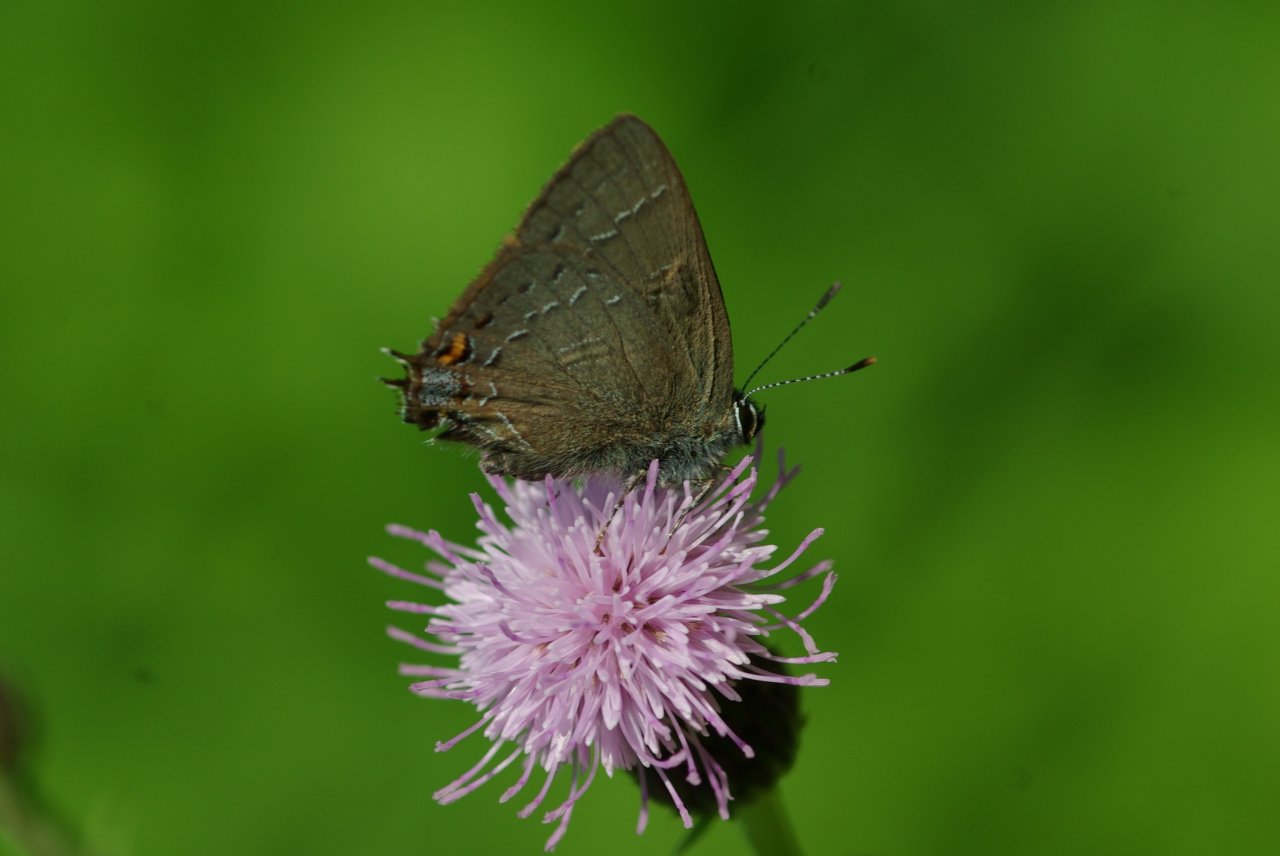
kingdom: Animalia
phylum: Arthropoda
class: Insecta
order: Lepidoptera
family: Lycaenidae
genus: Satyrium
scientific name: Satyrium calanus
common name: Banded Hairstreak
